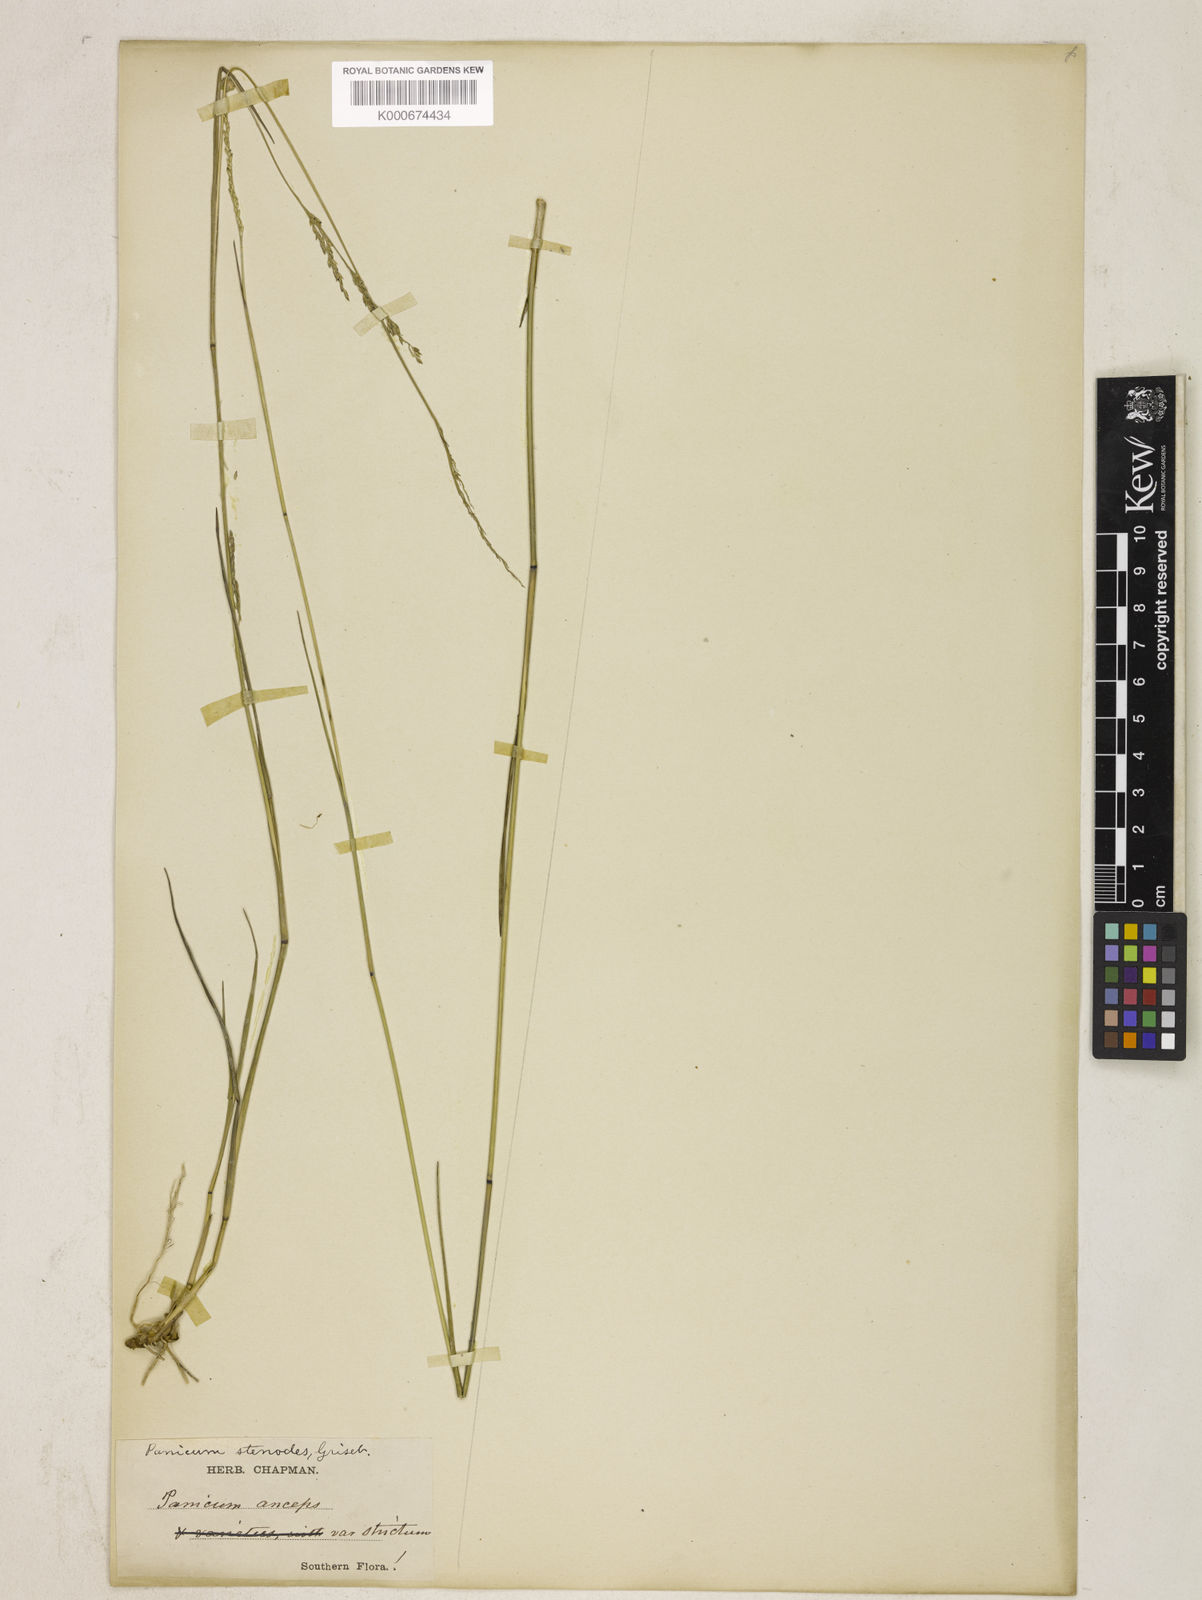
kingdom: Plantae
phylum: Tracheophyta
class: Liliopsida
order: Poales
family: Poaceae
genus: Coleataenia
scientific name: Coleataenia tenera
